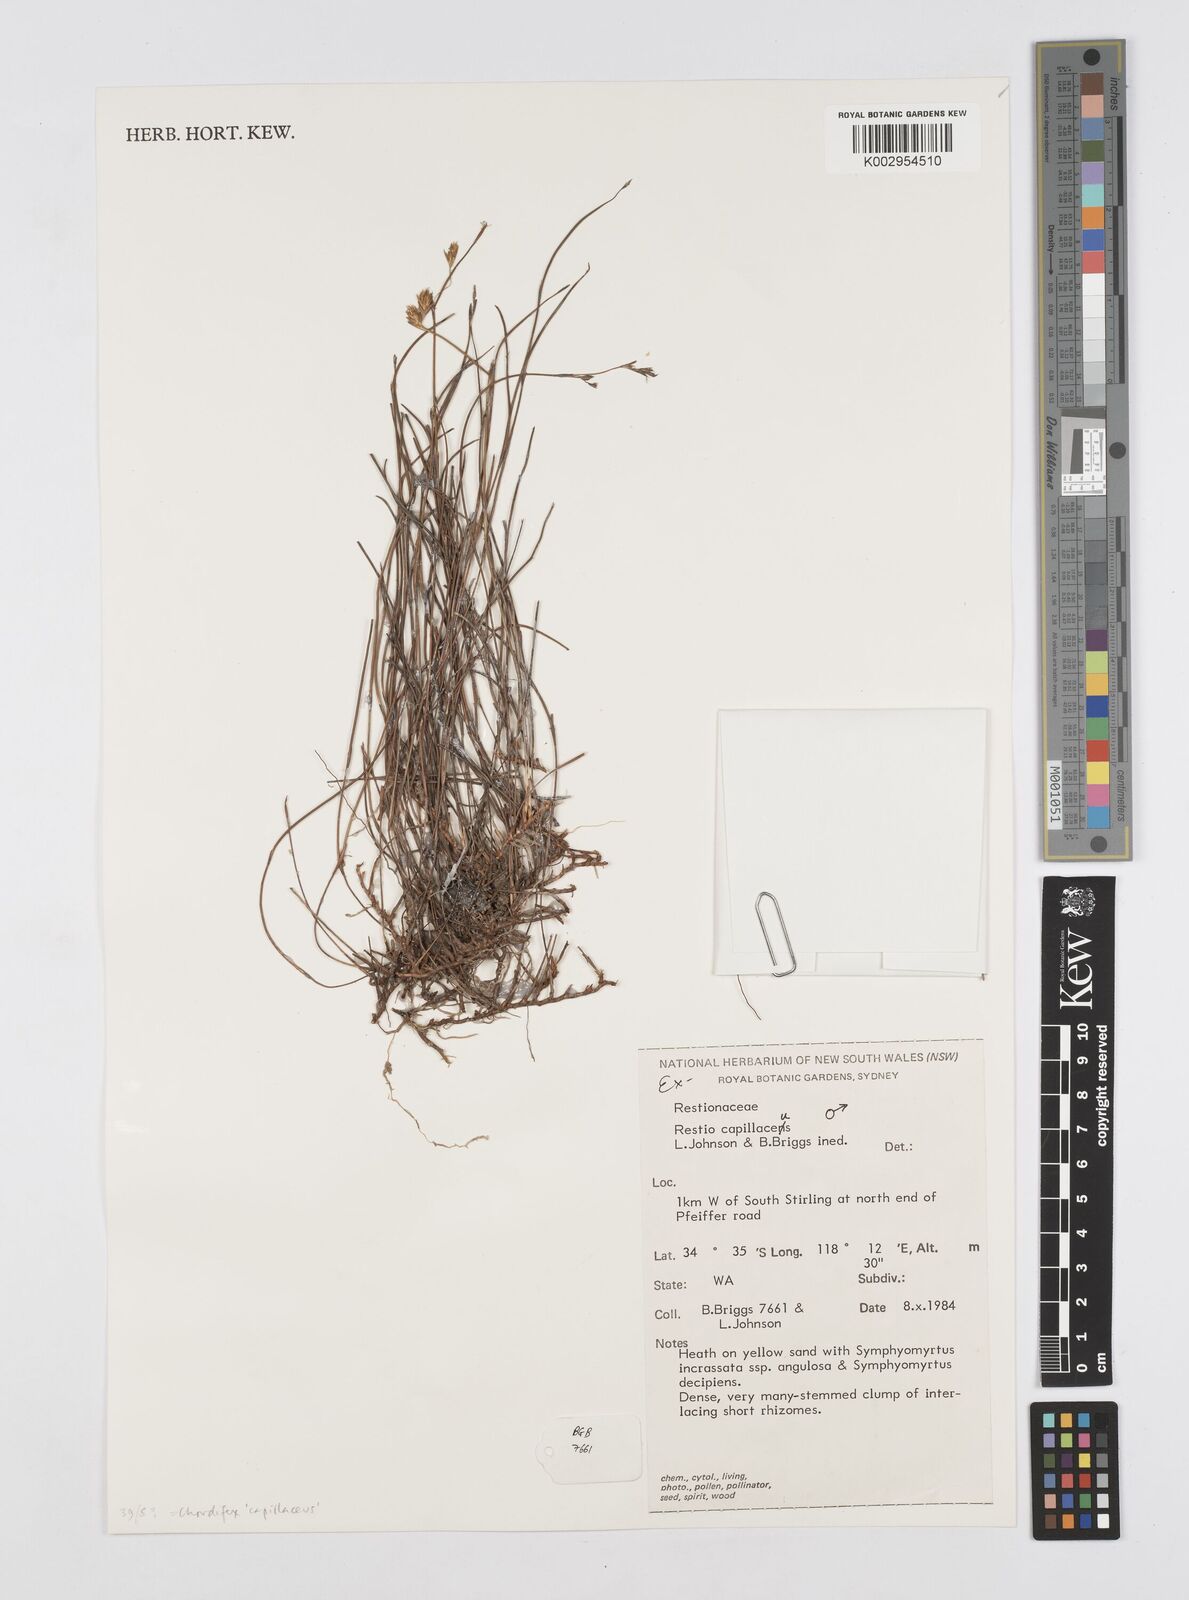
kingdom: Plantae
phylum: Tracheophyta
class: Liliopsida
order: Poales
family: Restionaceae
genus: Chordifex
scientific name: Chordifex capillaceus
